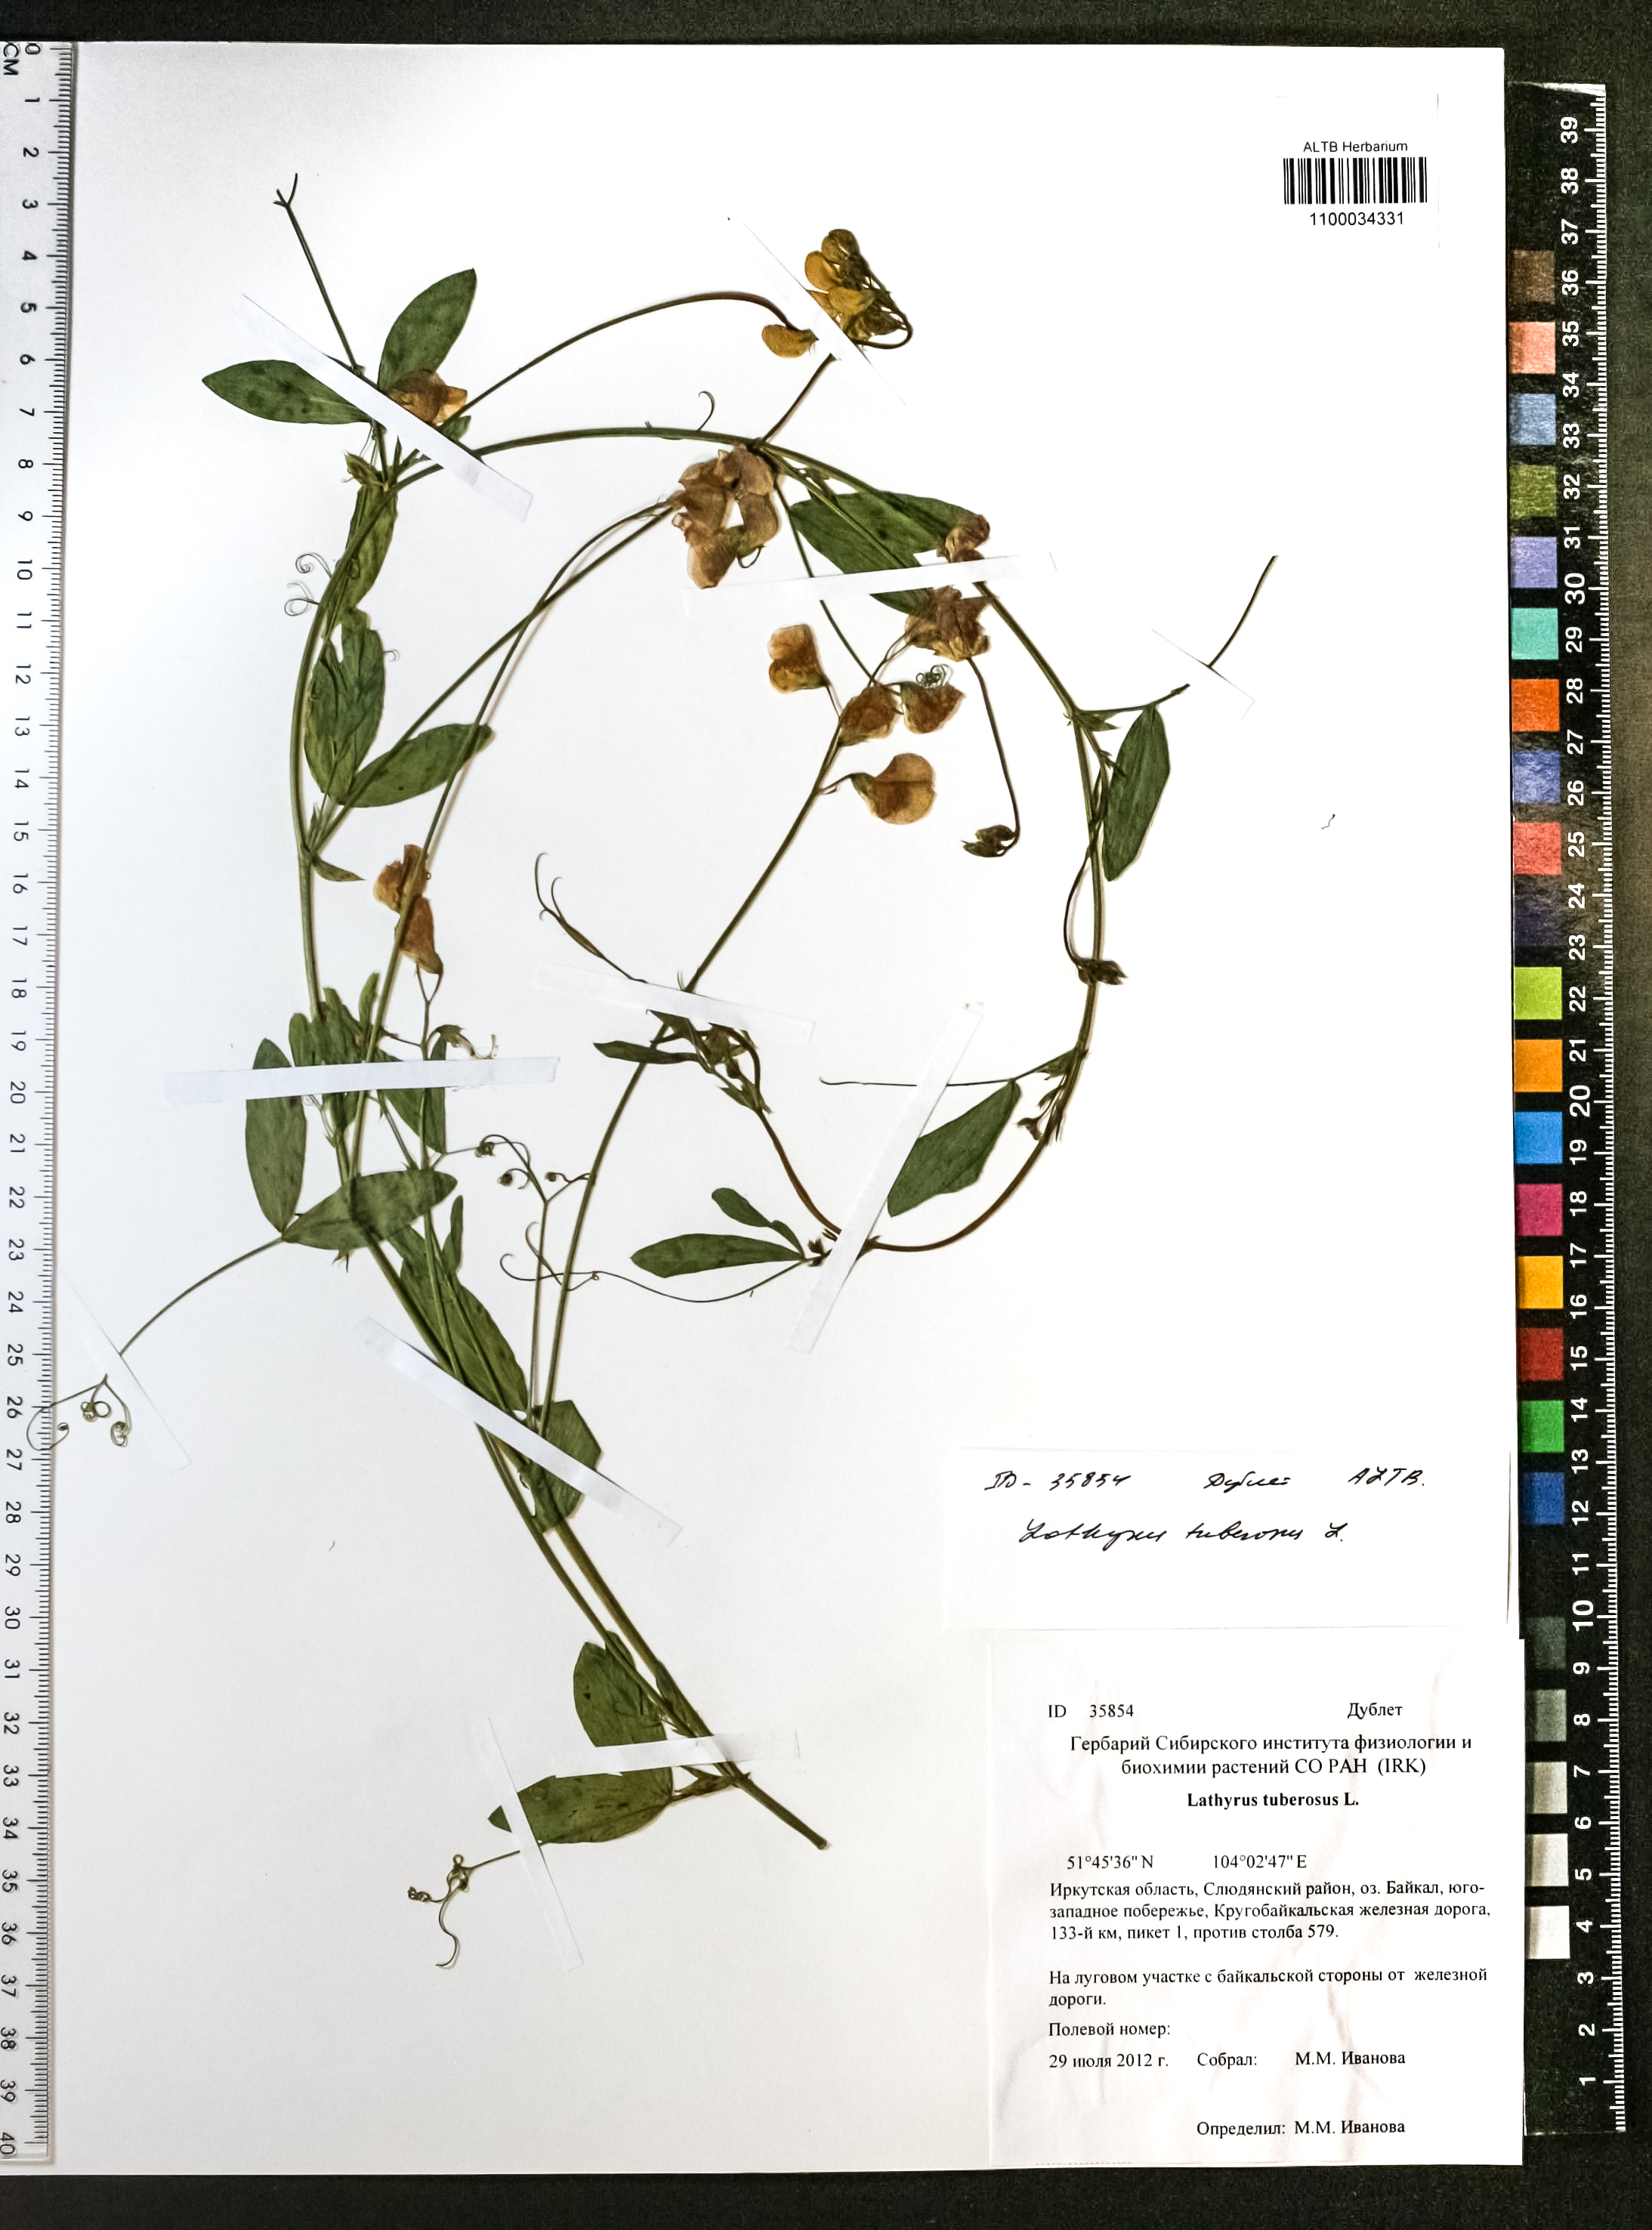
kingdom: Plantae
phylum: Tracheophyta
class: Magnoliopsida
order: Fabales
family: Fabaceae
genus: Lathyrus
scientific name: Lathyrus tuberosus
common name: Tuberous pea
